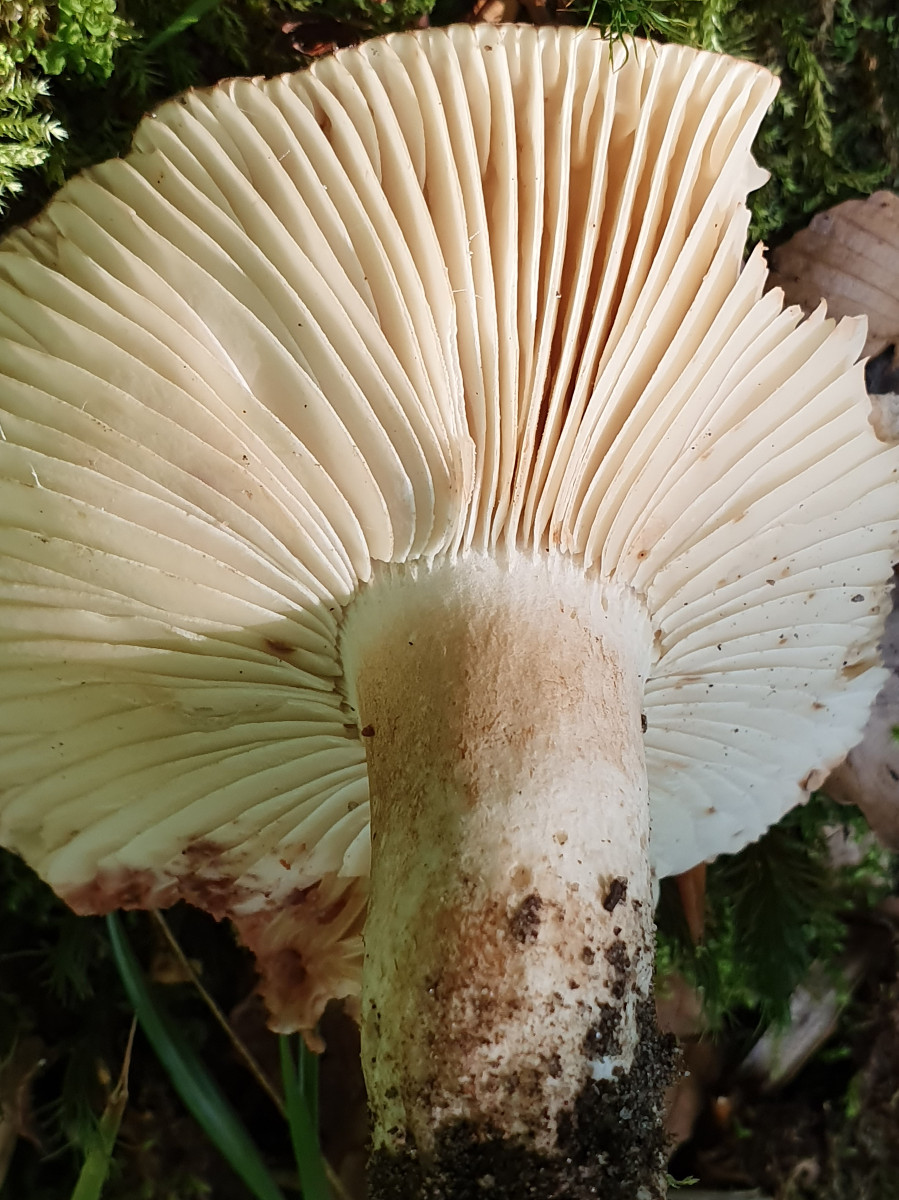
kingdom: Fungi
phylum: Basidiomycota
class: Agaricomycetes
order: Russulales
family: Russulaceae
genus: Russula
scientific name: Russula adusta
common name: sværtende skørhat
